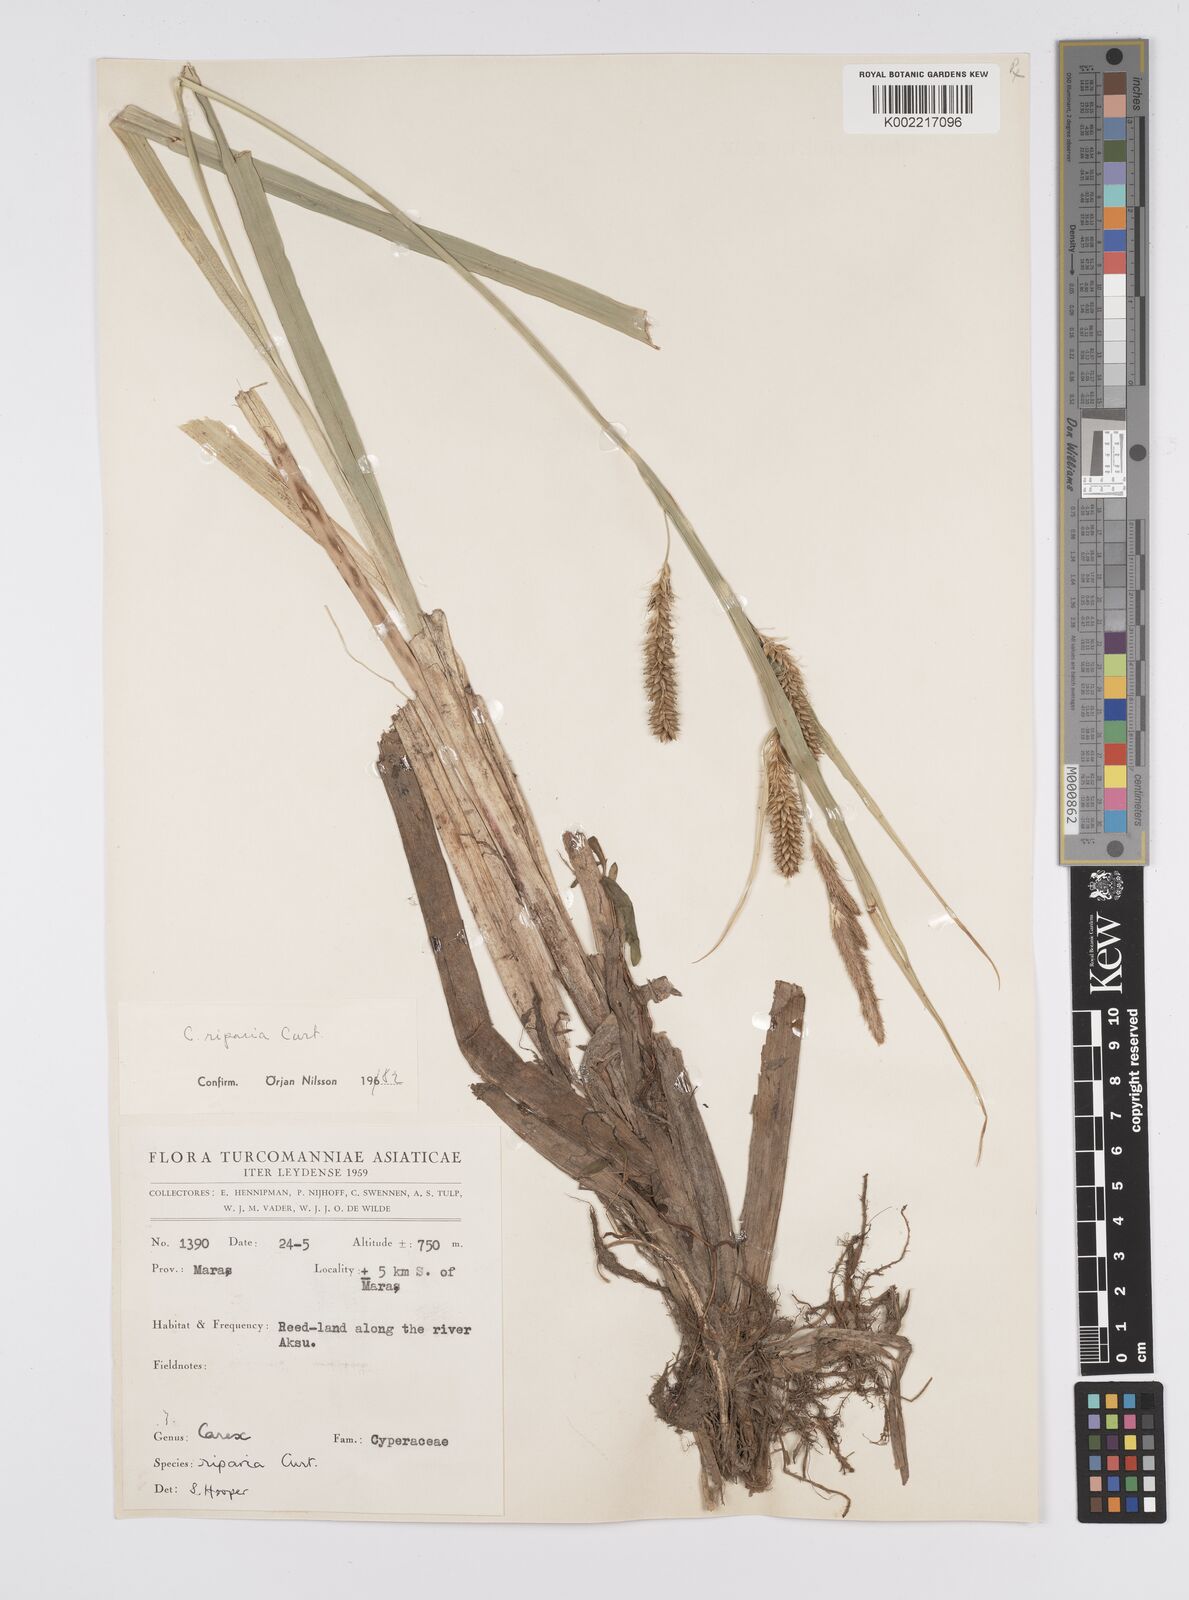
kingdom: Plantae
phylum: Tracheophyta
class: Liliopsida
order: Poales
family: Cyperaceae
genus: Carex
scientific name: Carex riparia
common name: Greater pond-sedge
